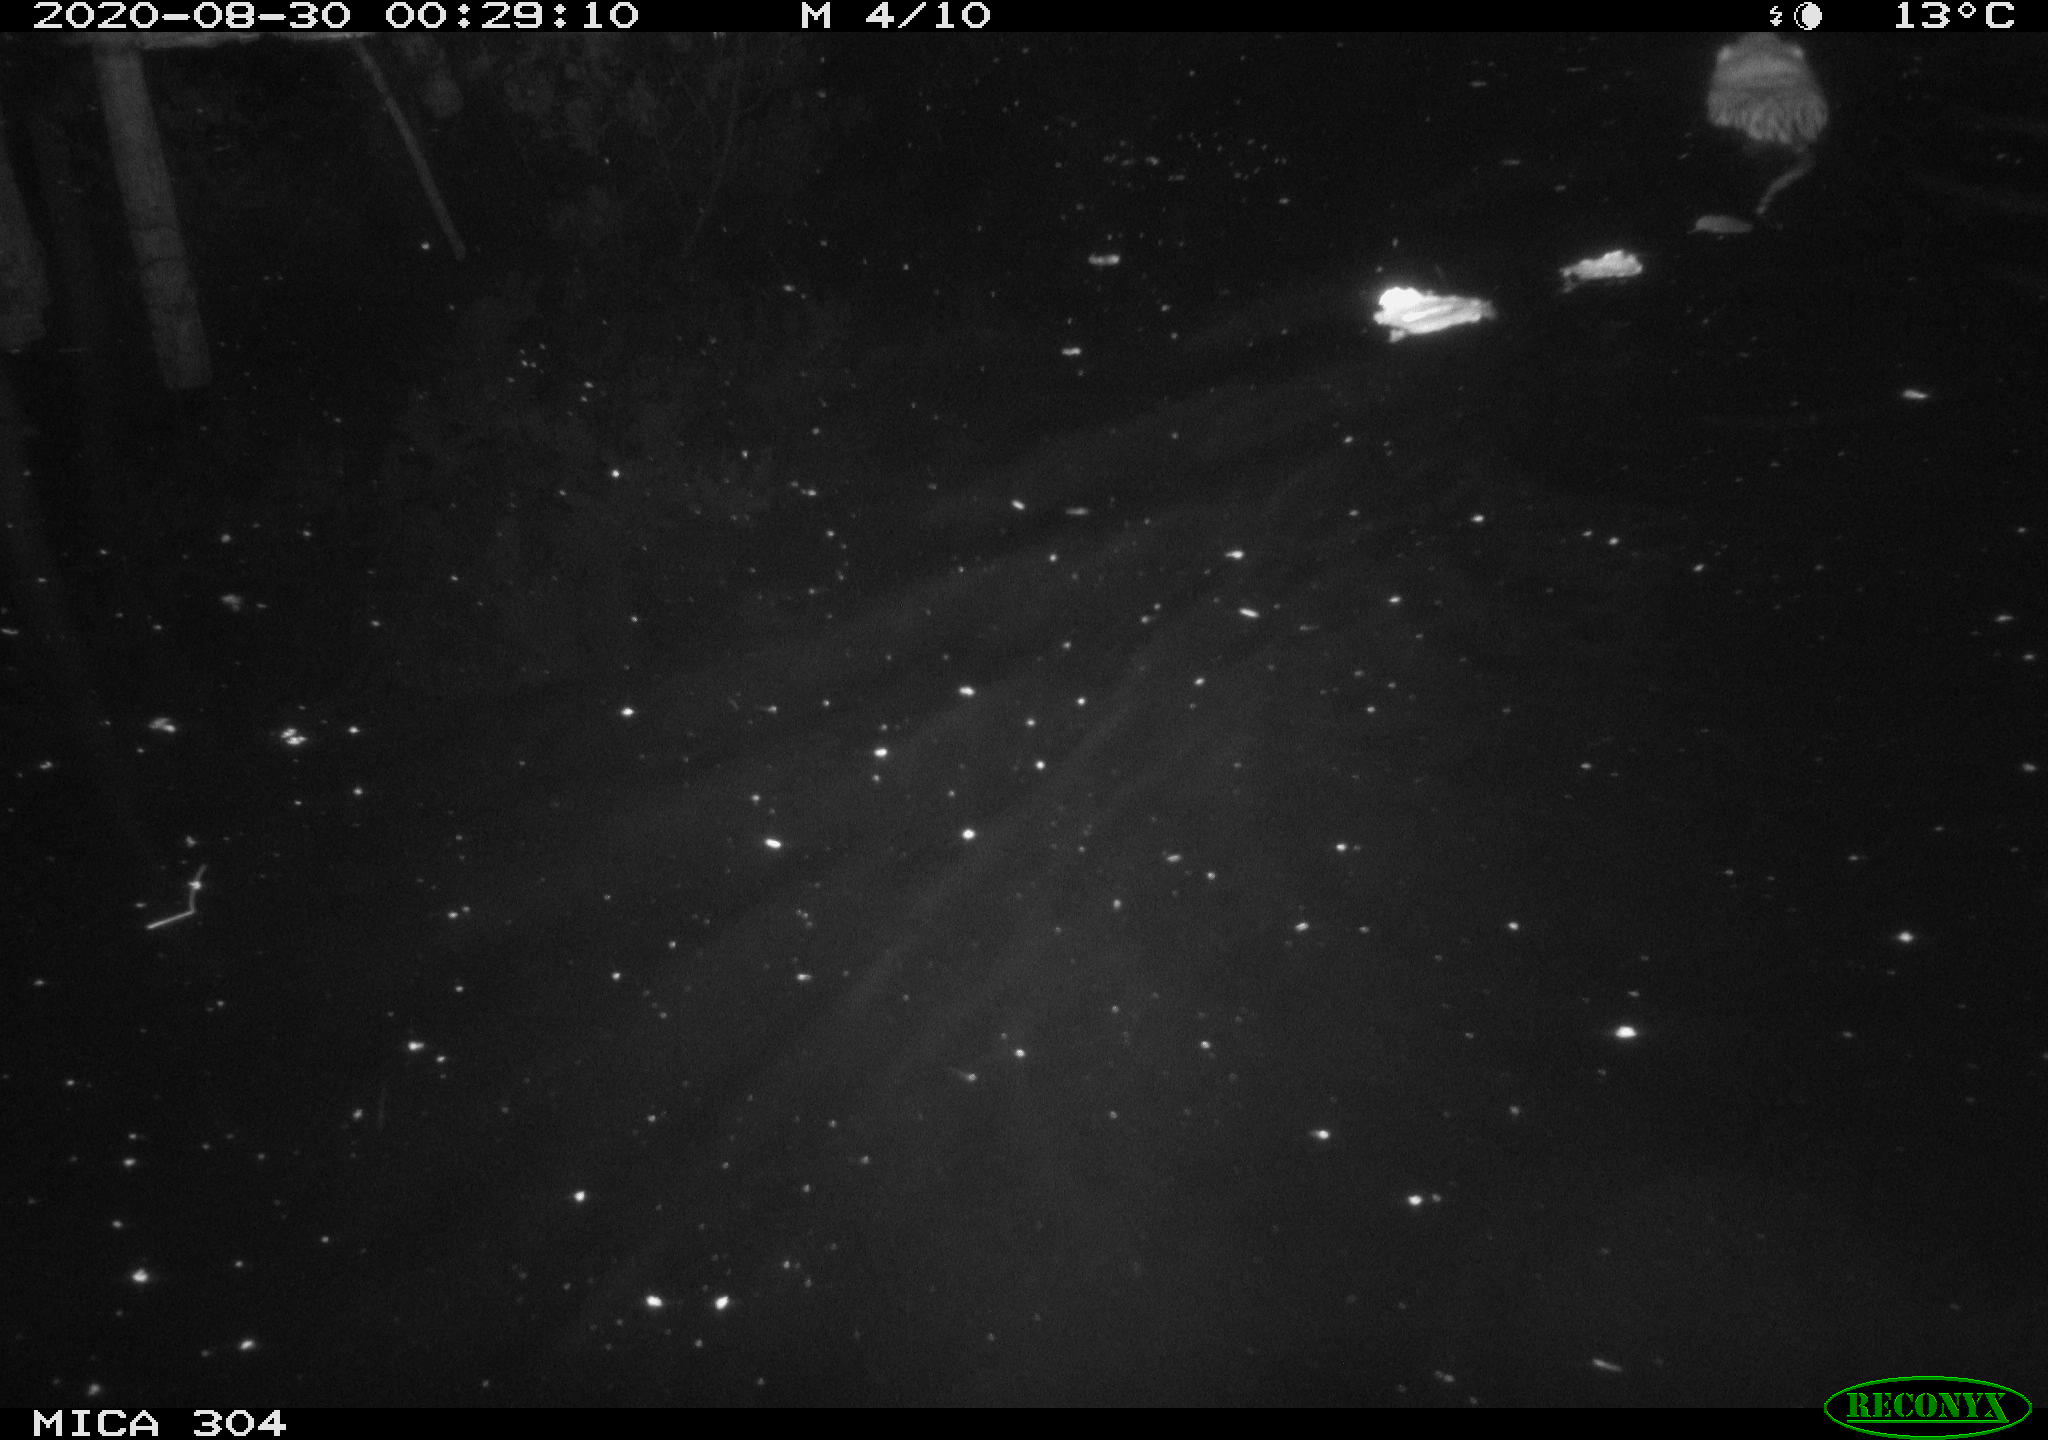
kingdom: Animalia
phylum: Chordata
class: Mammalia
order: Rodentia
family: Cricetidae
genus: Ondatra
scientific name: Ondatra zibethicus
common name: Muskrat
